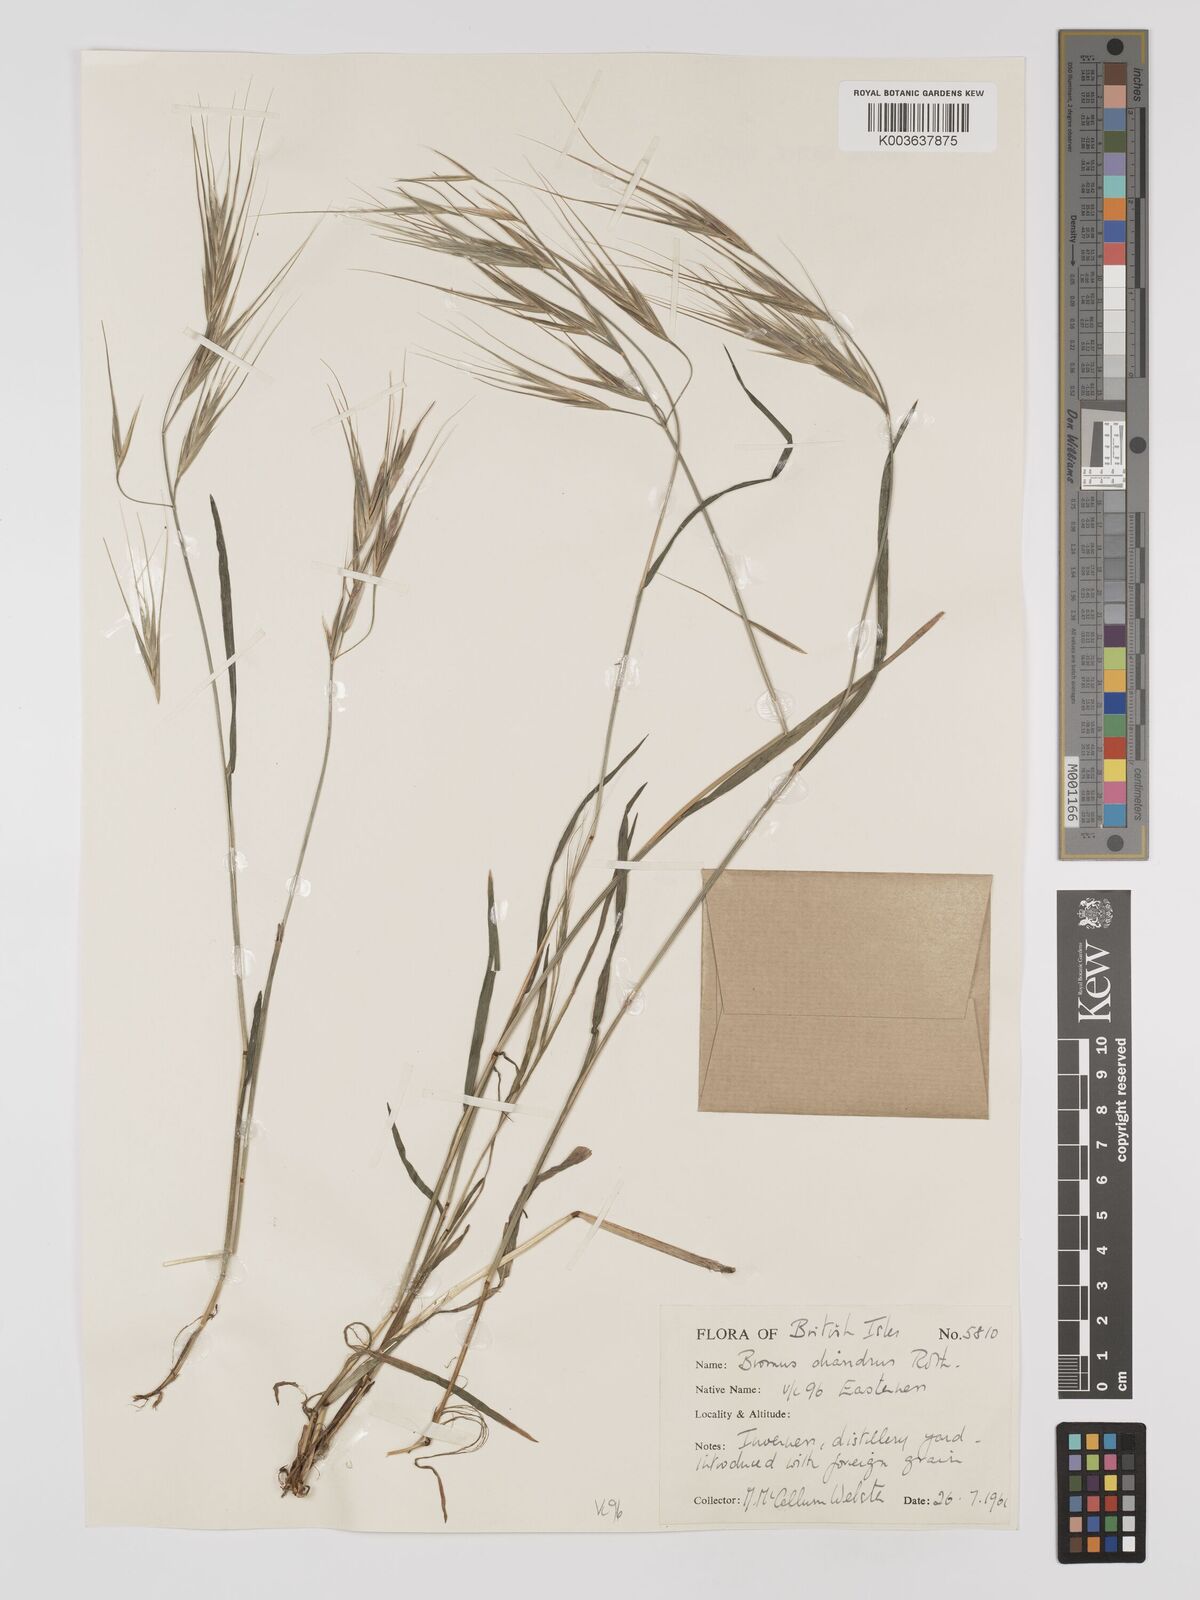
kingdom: Plantae
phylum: Tracheophyta
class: Liliopsida
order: Poales
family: Poaceae
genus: Bromus
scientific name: Bromus
